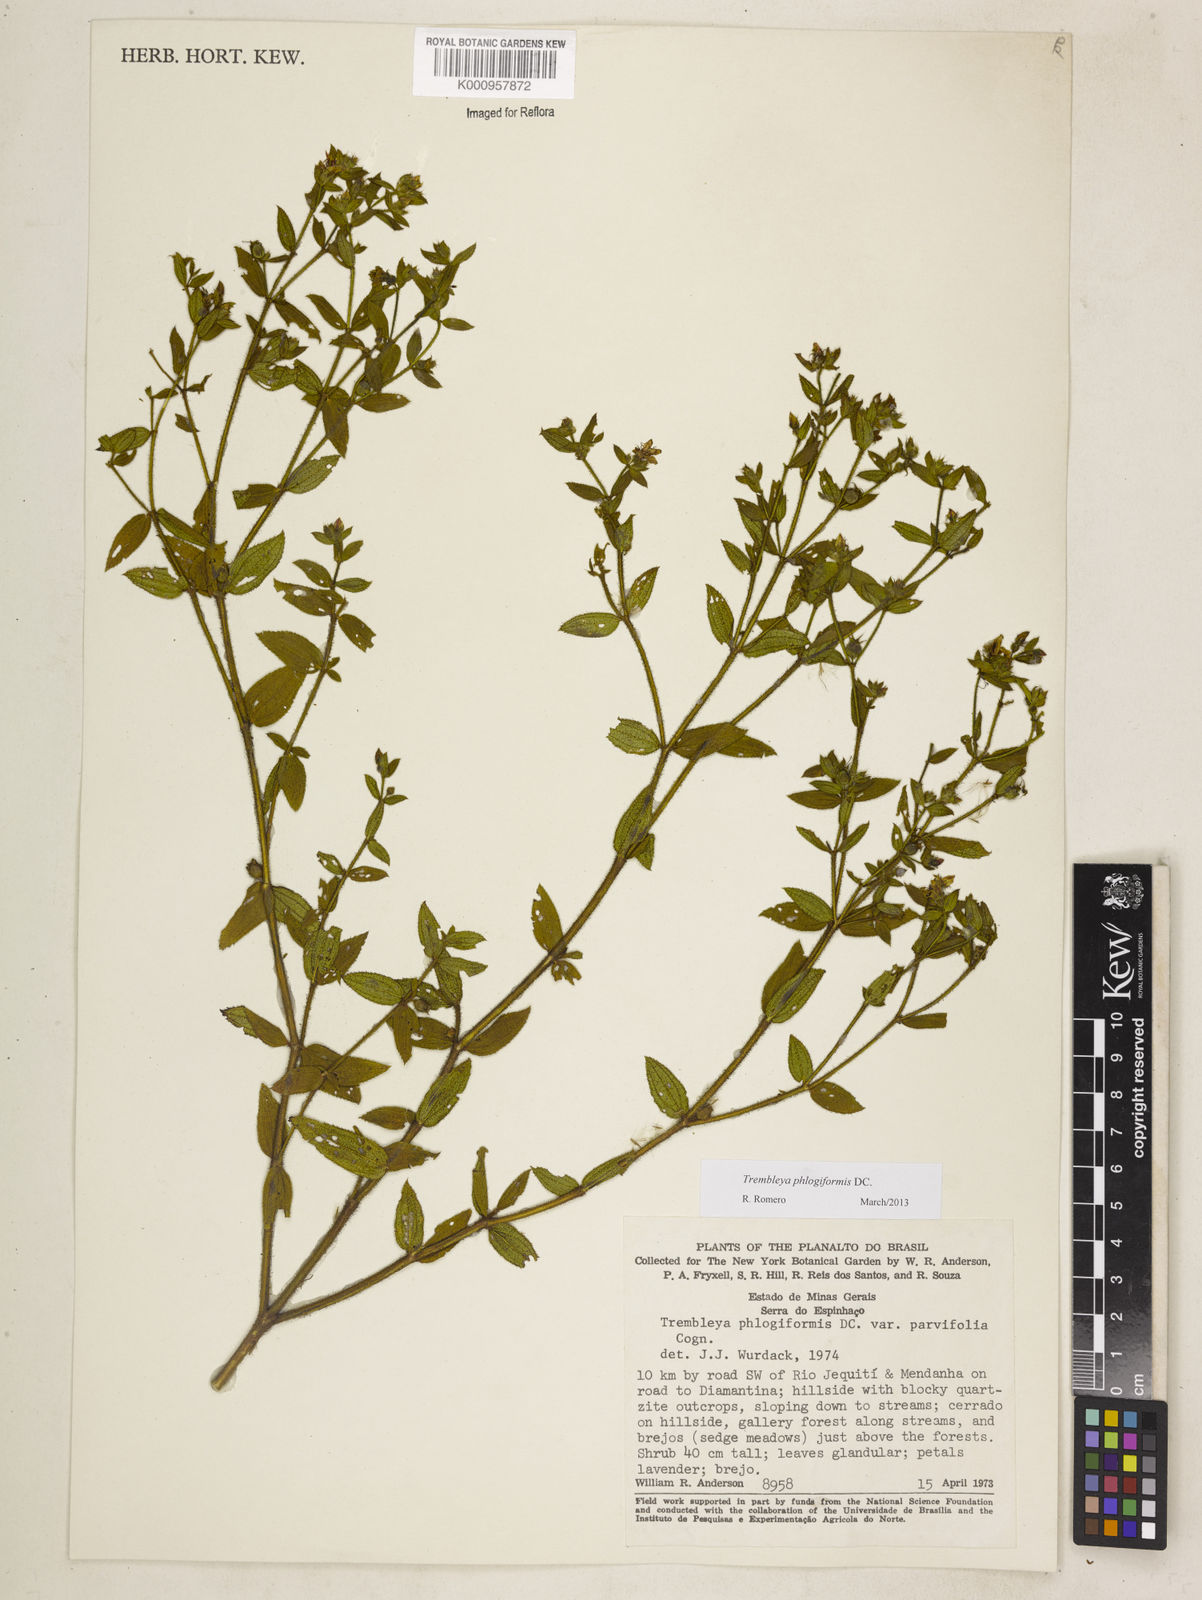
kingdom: Plantae
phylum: Tracheophyta
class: Magnoliopsida
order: Myrtales
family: Melastomataceae
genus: Microlicia
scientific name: Microlicia phlogiformis
